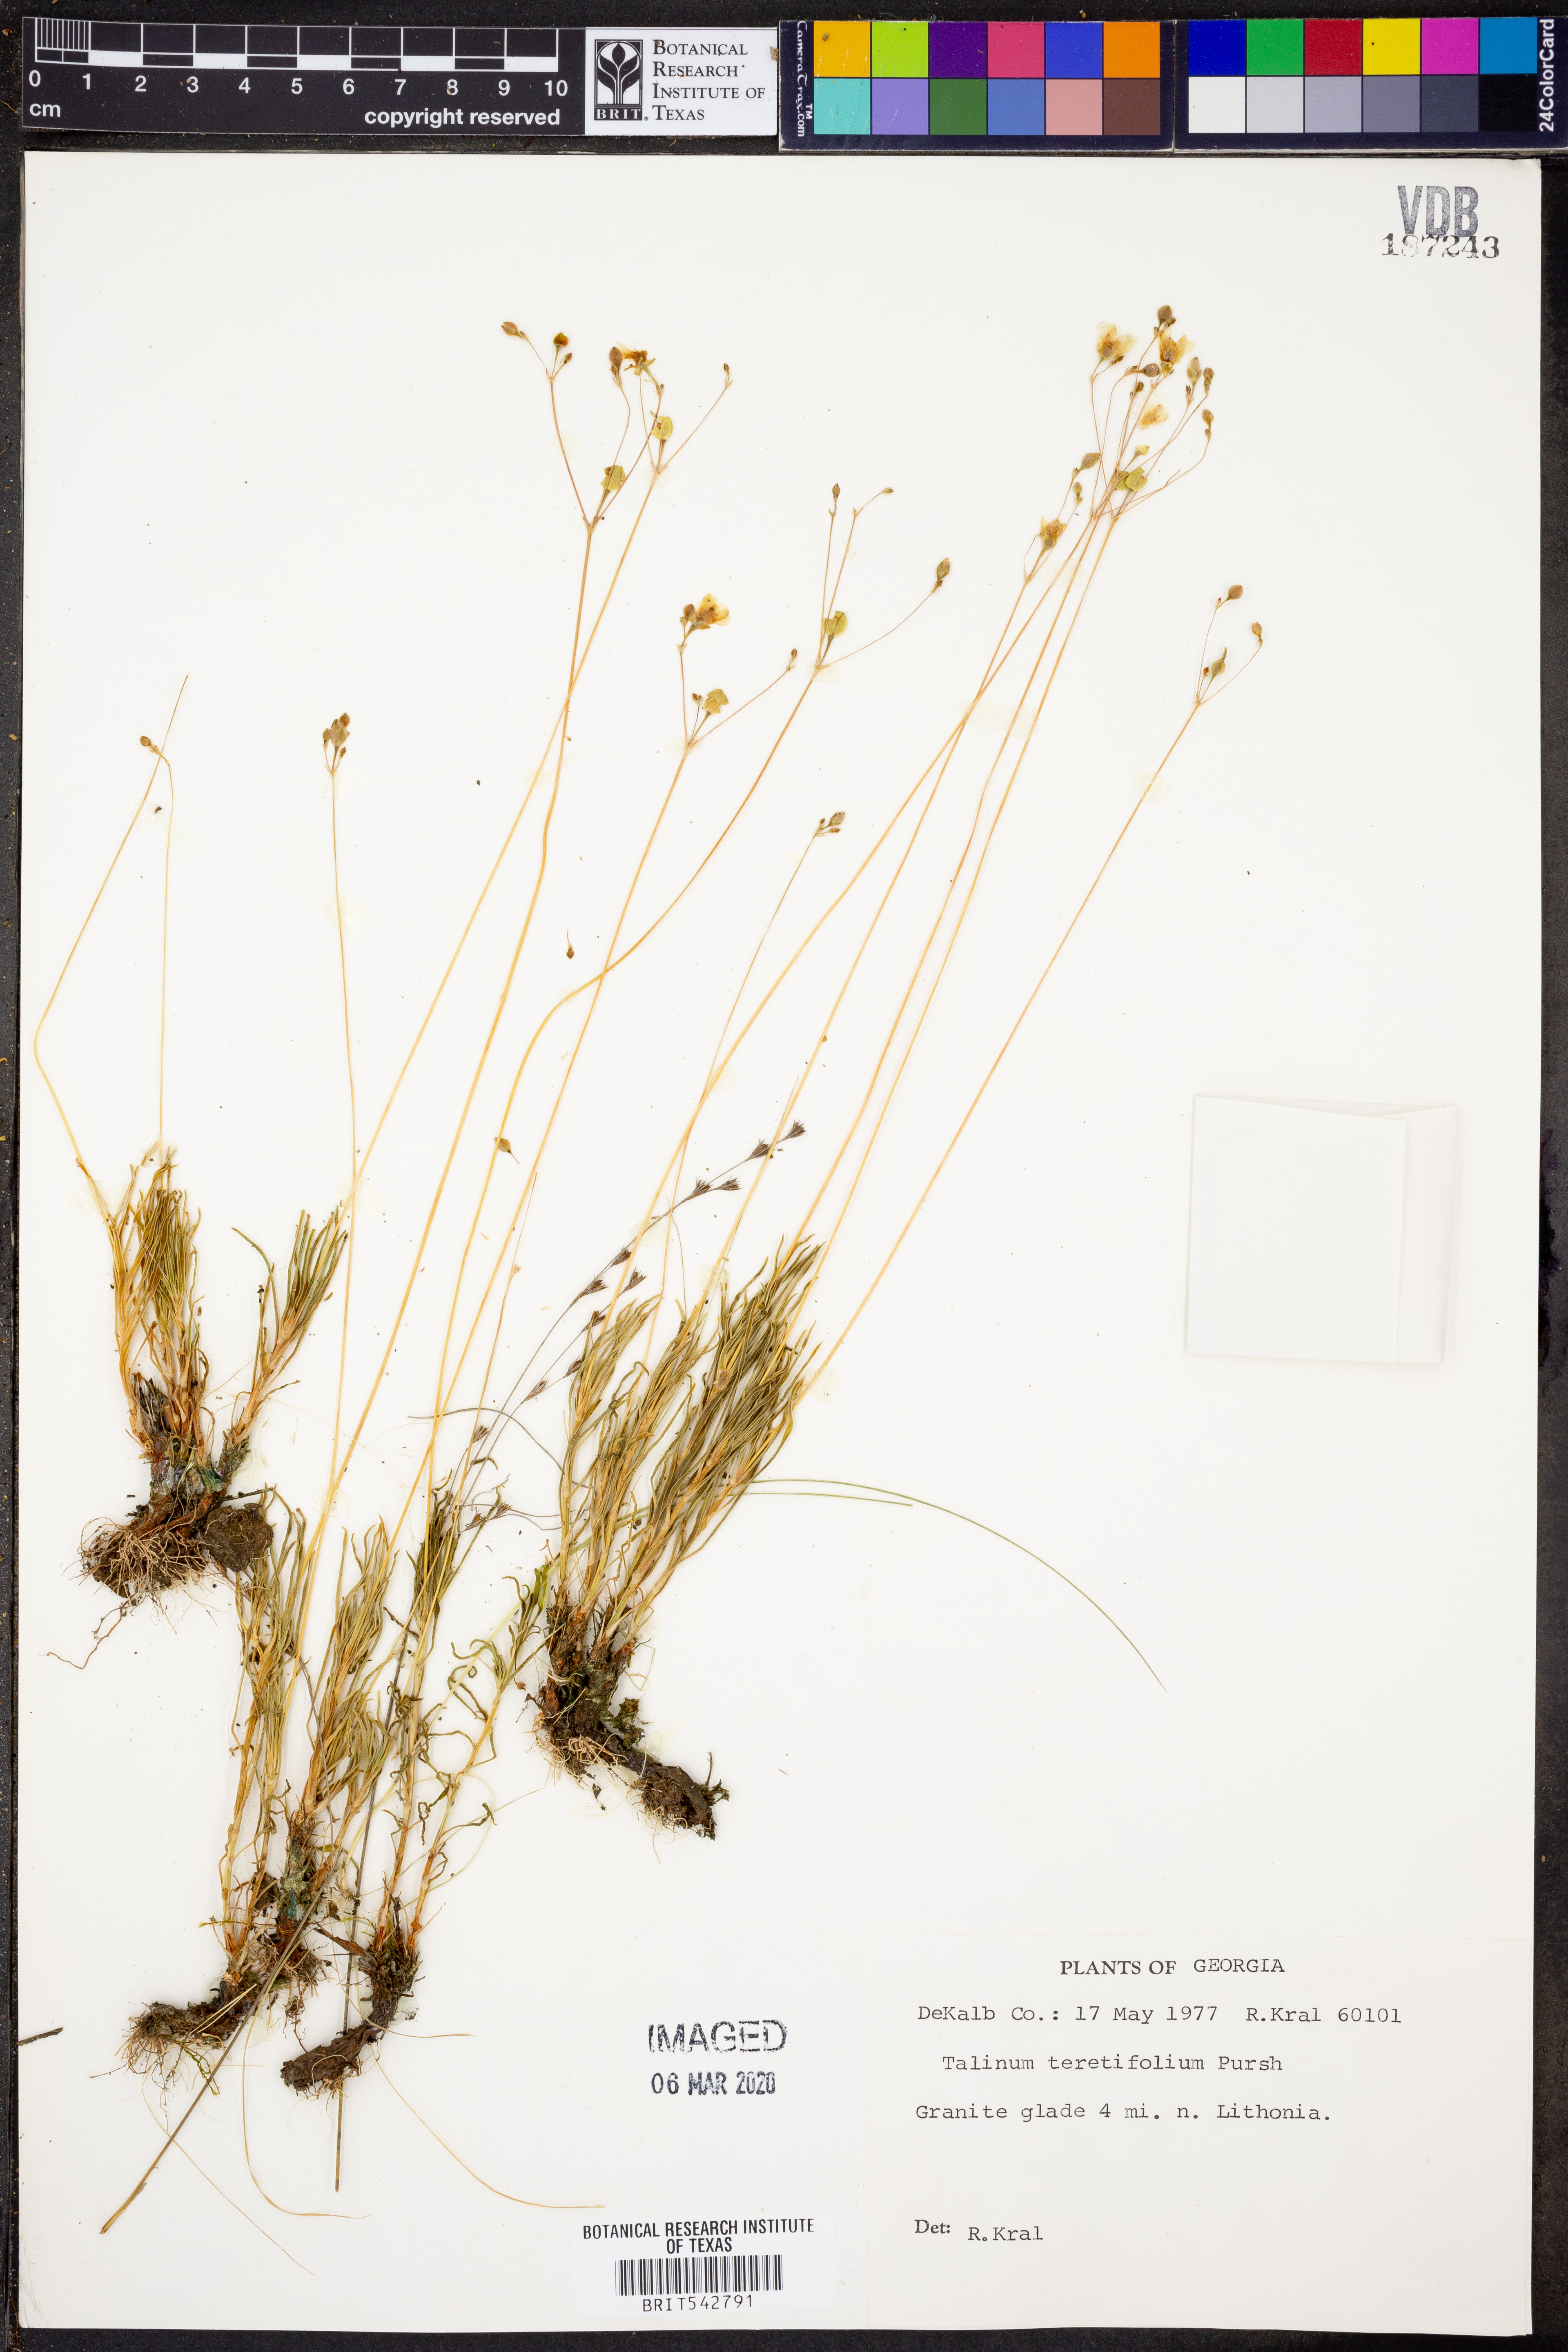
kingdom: Plantae
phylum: Tracheophyta
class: Magnoliopsida
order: Caryophyllales
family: Montiaceae
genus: Phemeranthus
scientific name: Phemeranthus teretifolius
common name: Quill fameflower
